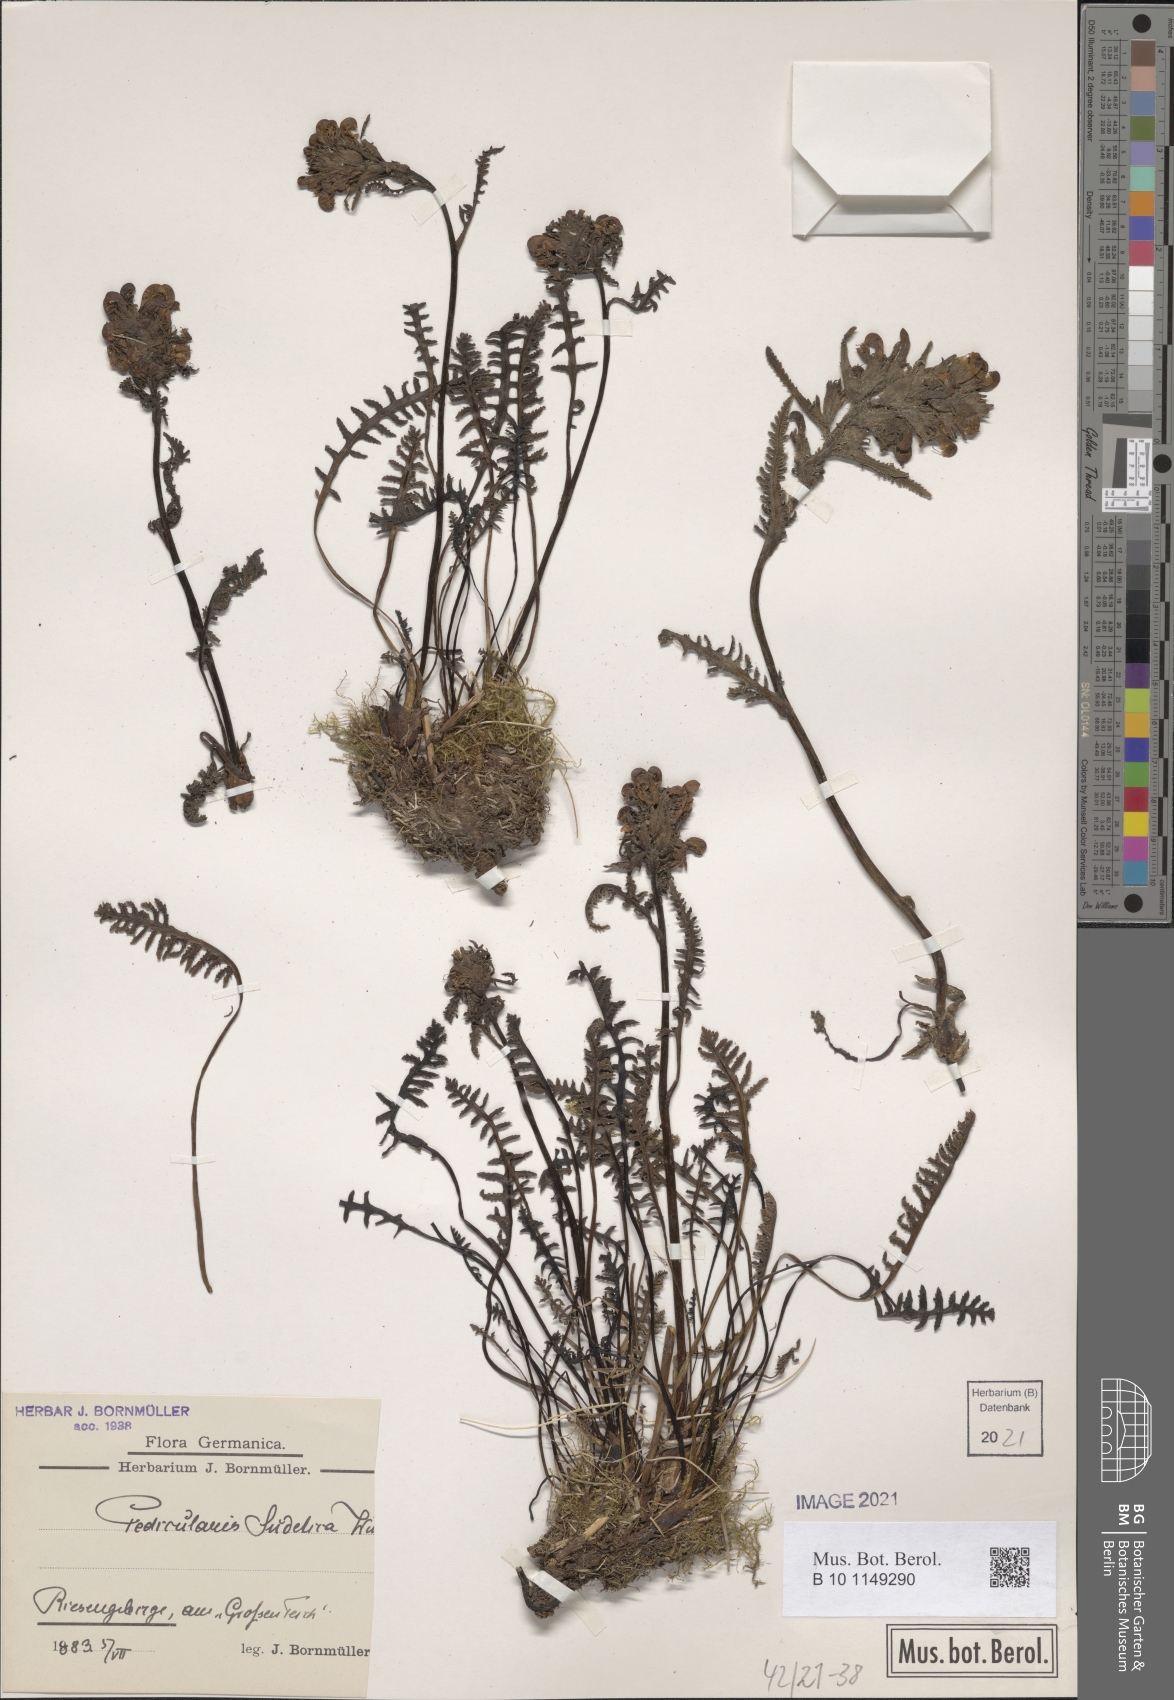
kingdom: Plantae
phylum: Tracheophyta
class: Magnoliopsida
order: Lamiales
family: Orobanchaceae
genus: Pedicularis
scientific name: Pedicularis sudetica
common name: Sudeten lousewort
